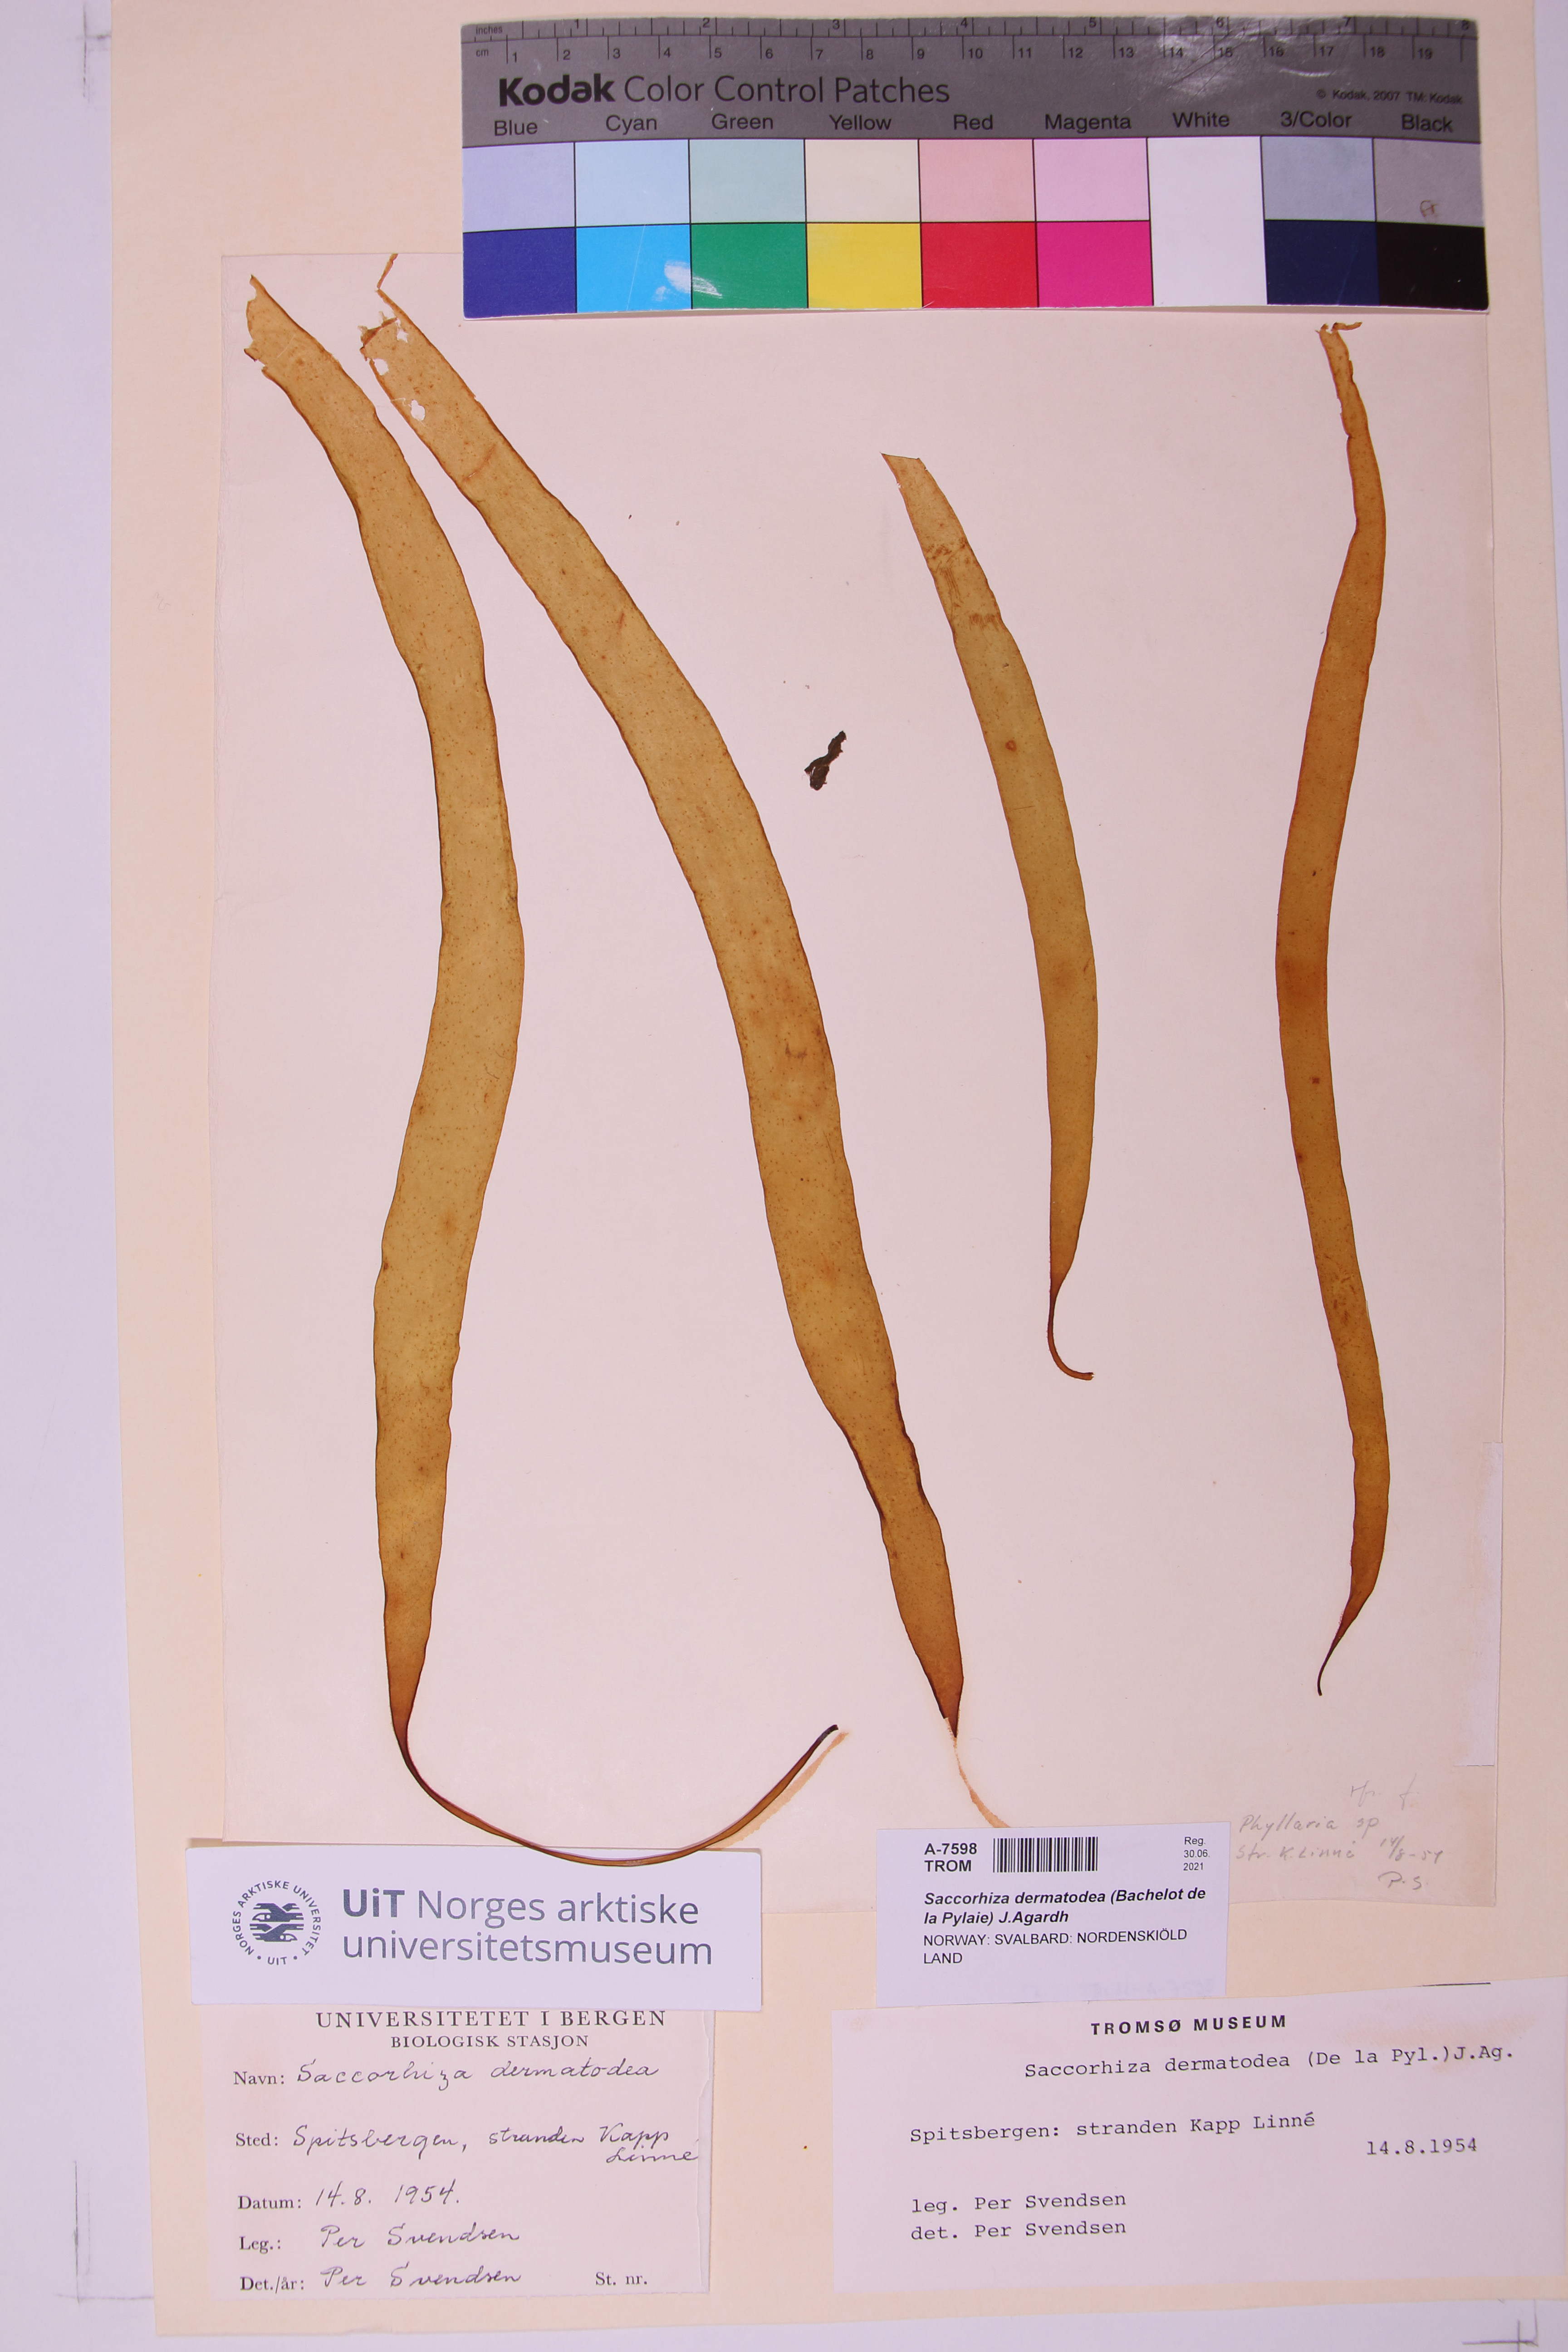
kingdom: Chromista
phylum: Ochrophyta
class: Phaeophyceae
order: Tilopteridales
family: Phyllariaceae
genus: Saccorhiza
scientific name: Saccorhiza dermatodea
